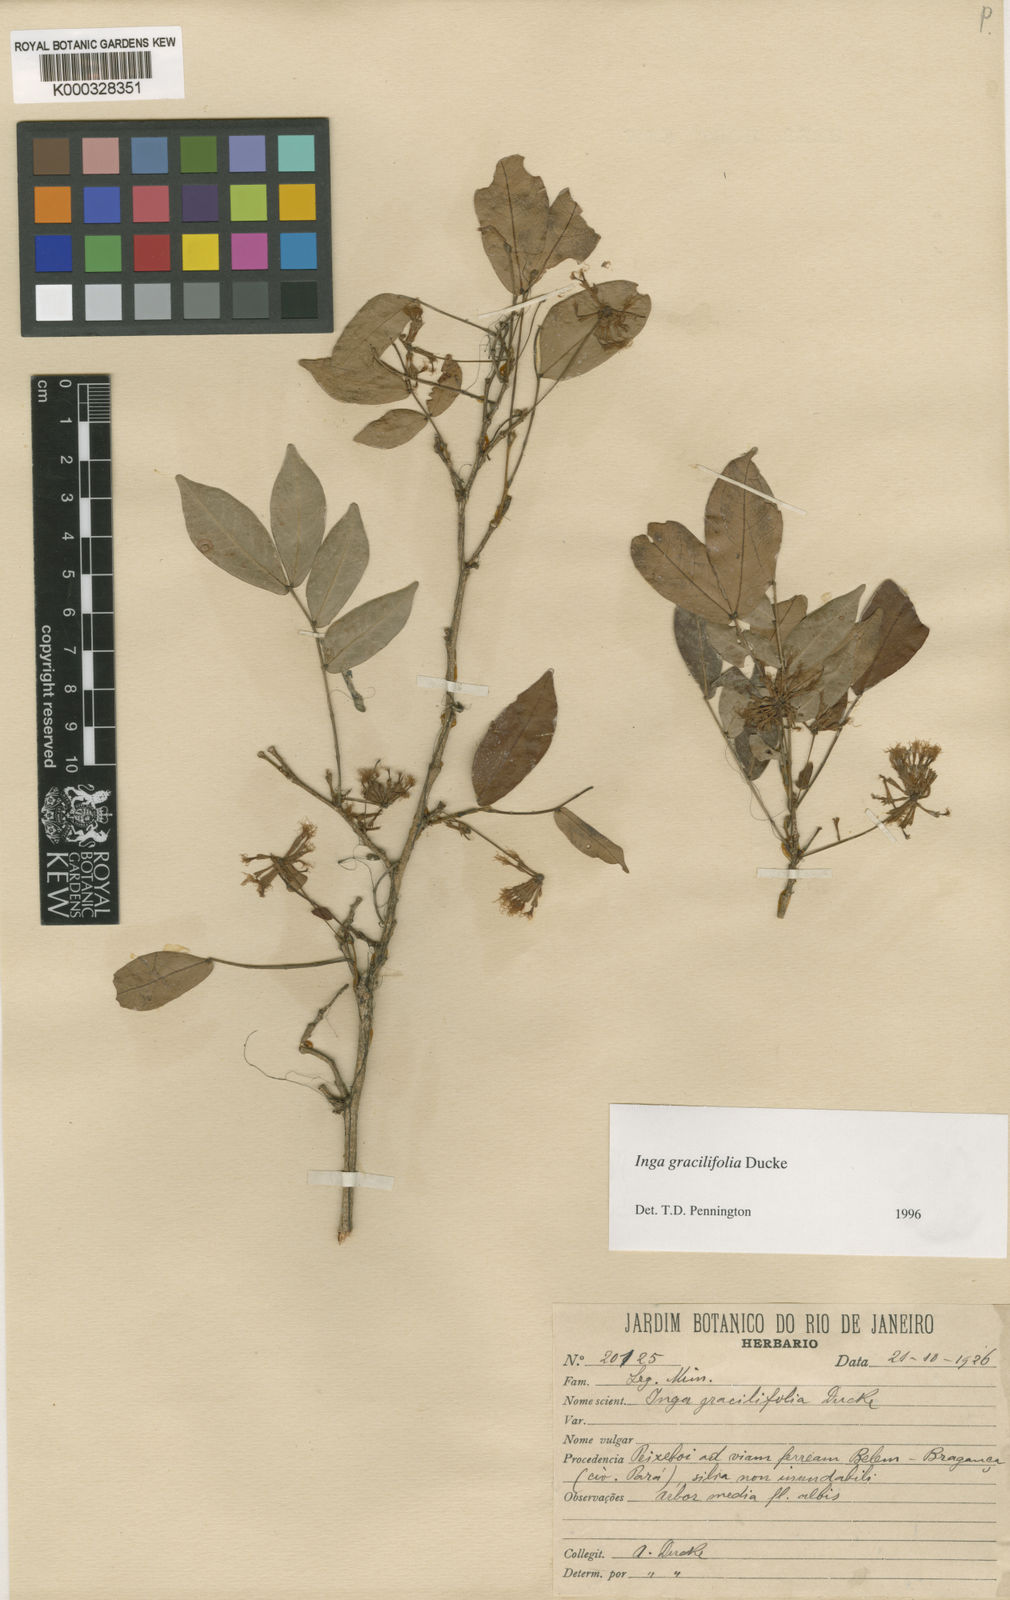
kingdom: Plantae
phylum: Tracheophyta
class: Magnoliopsida
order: Fabales
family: Fabaceae
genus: Inga
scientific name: Inga gracilifolia
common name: Gracefulleaf inga
